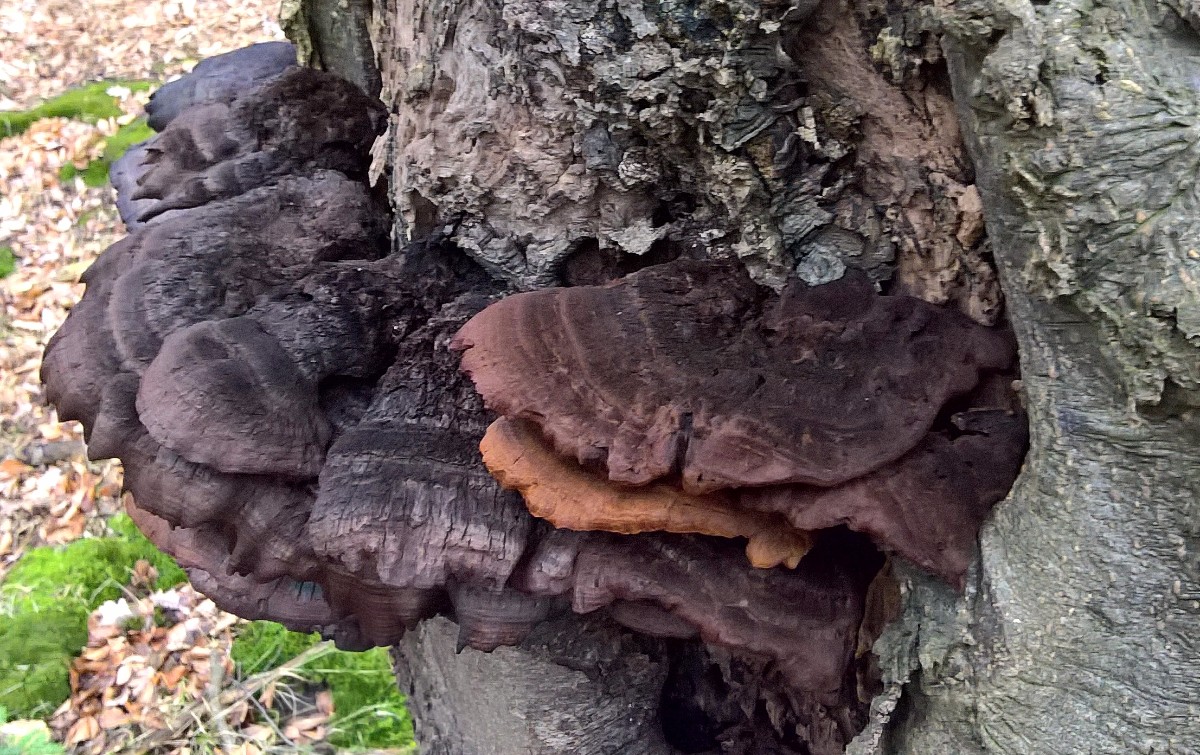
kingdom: Fungi
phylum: Basidiomycota
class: Agaricomycetes
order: Hymenochaetales
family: Hymenochaetaceae
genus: Inonotus
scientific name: Inonotus cuticularis
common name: kroghåret spejlporesvamp
